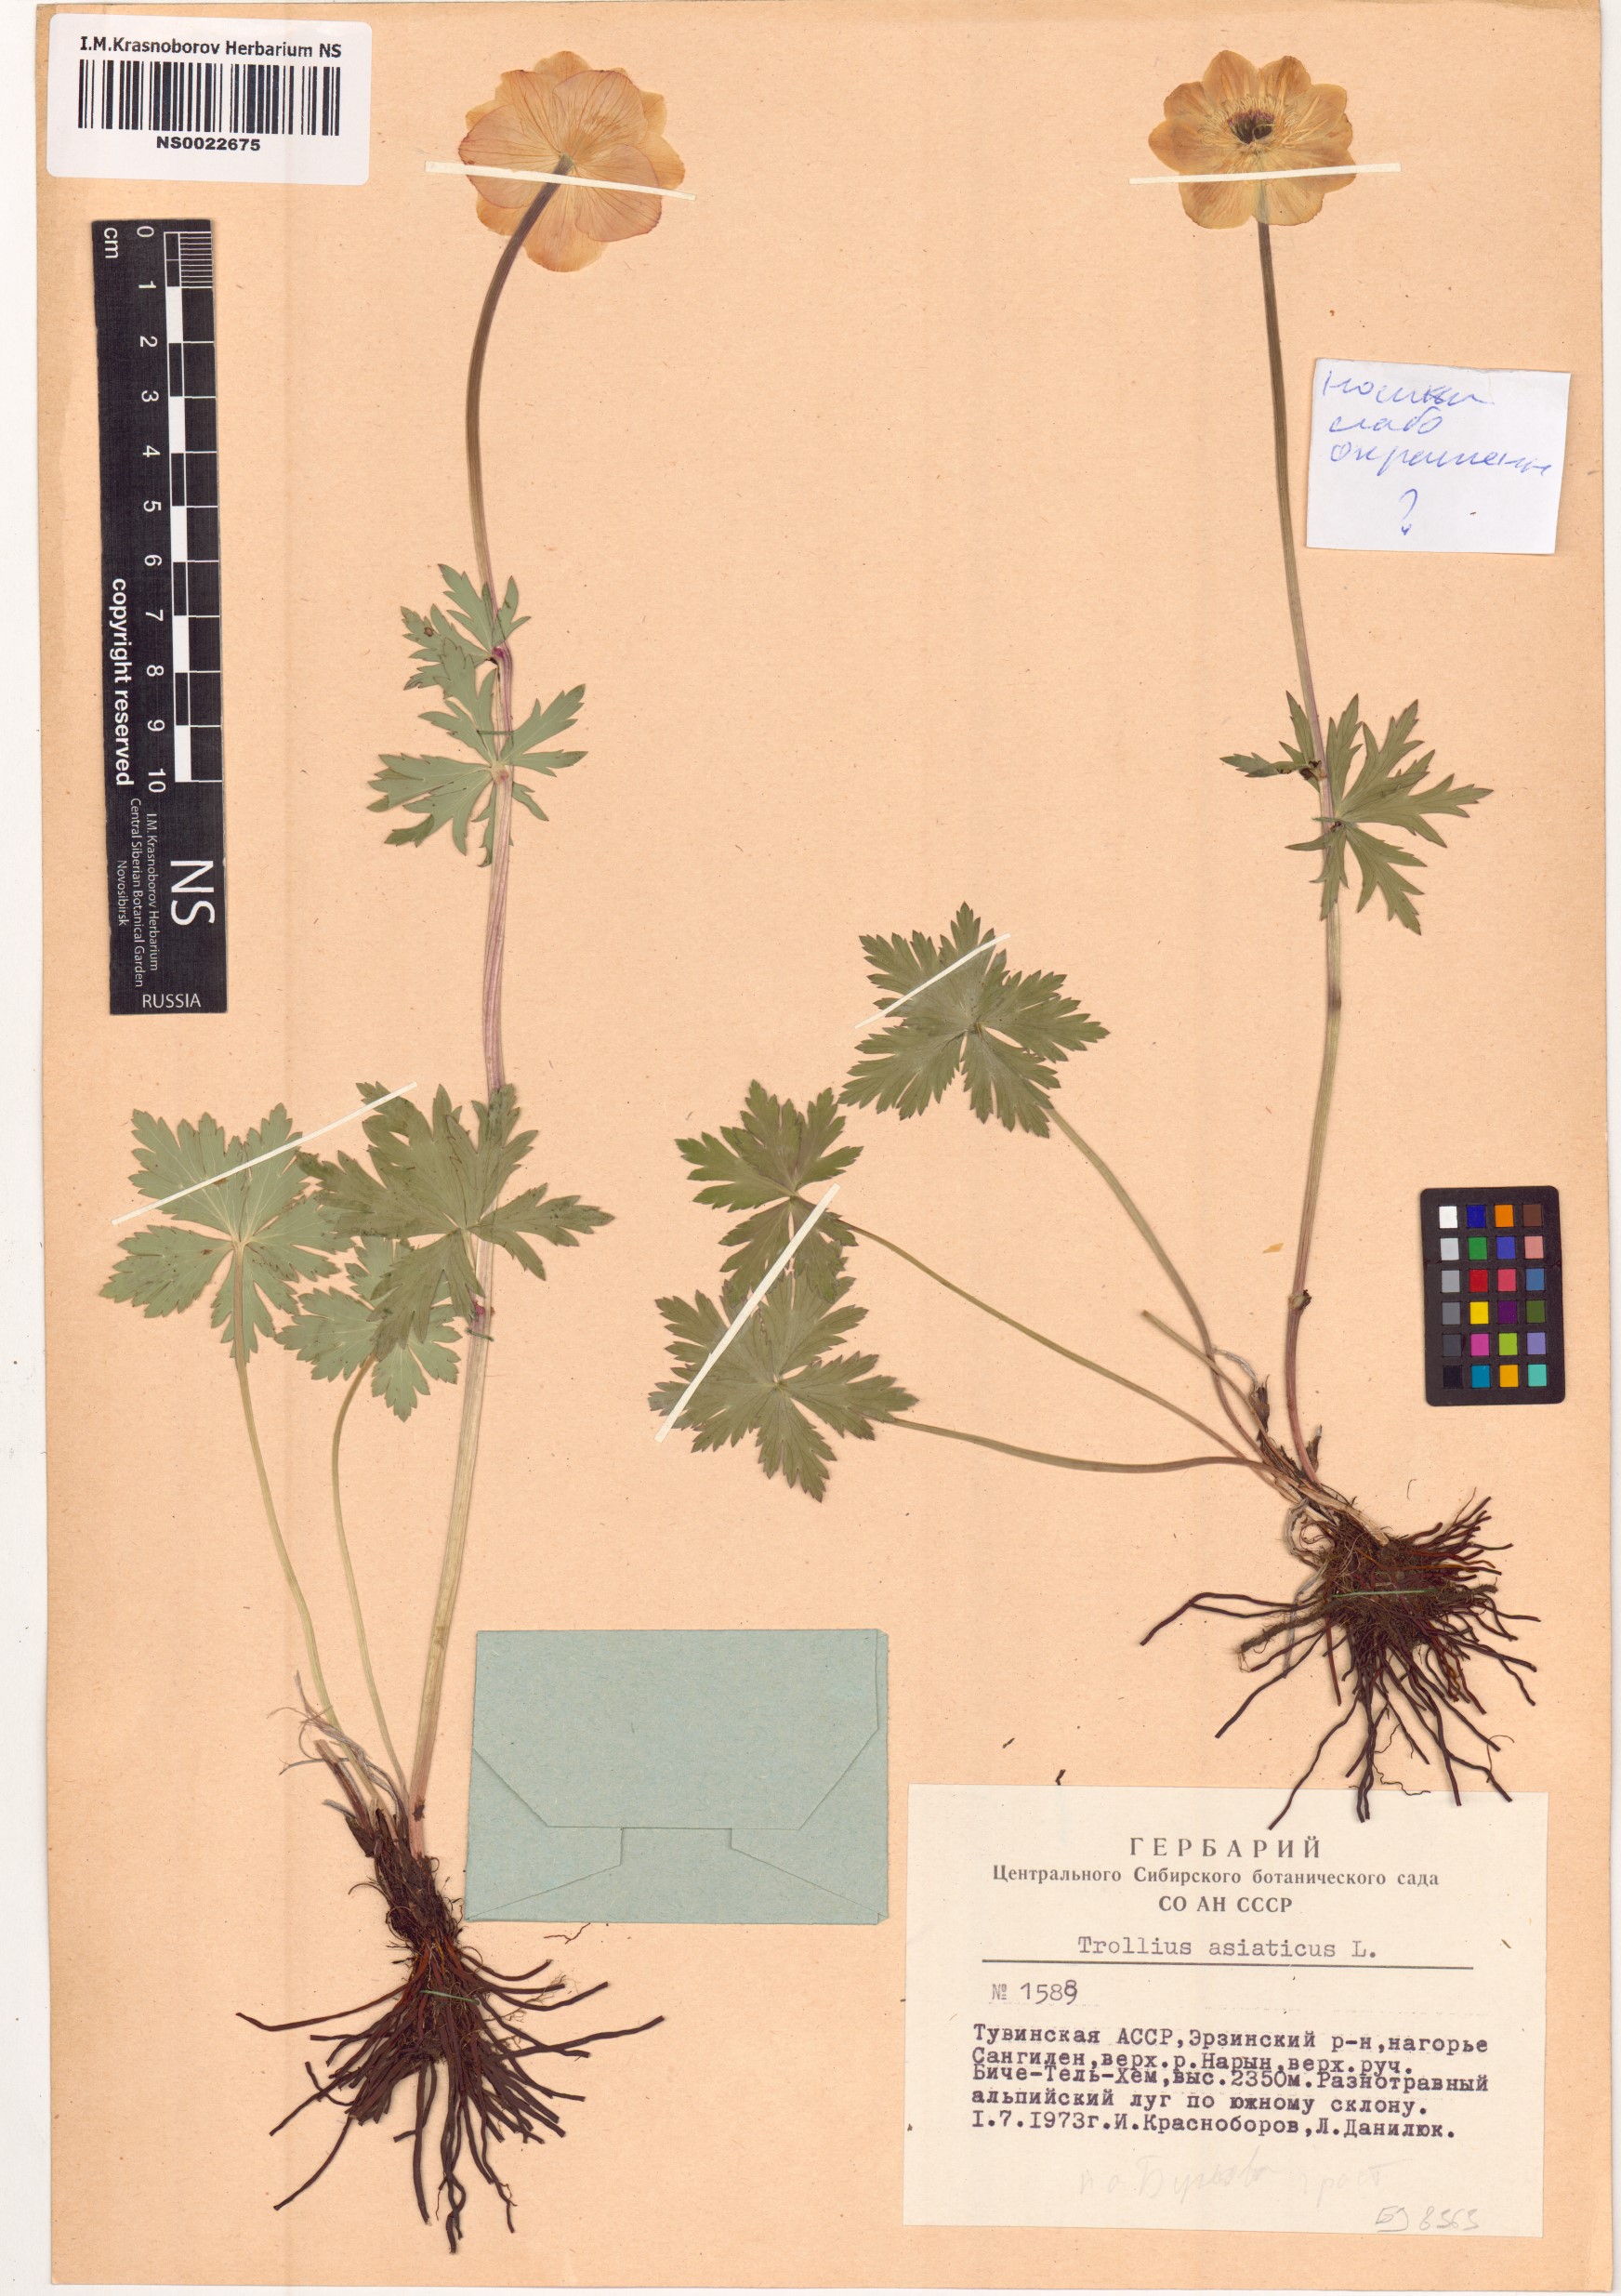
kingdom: Plantae
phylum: Tracheophyta
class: Magnoliopsida
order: Ranunculales
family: Ranunculaceae
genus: Trollius
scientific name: Trollius asiaticus
